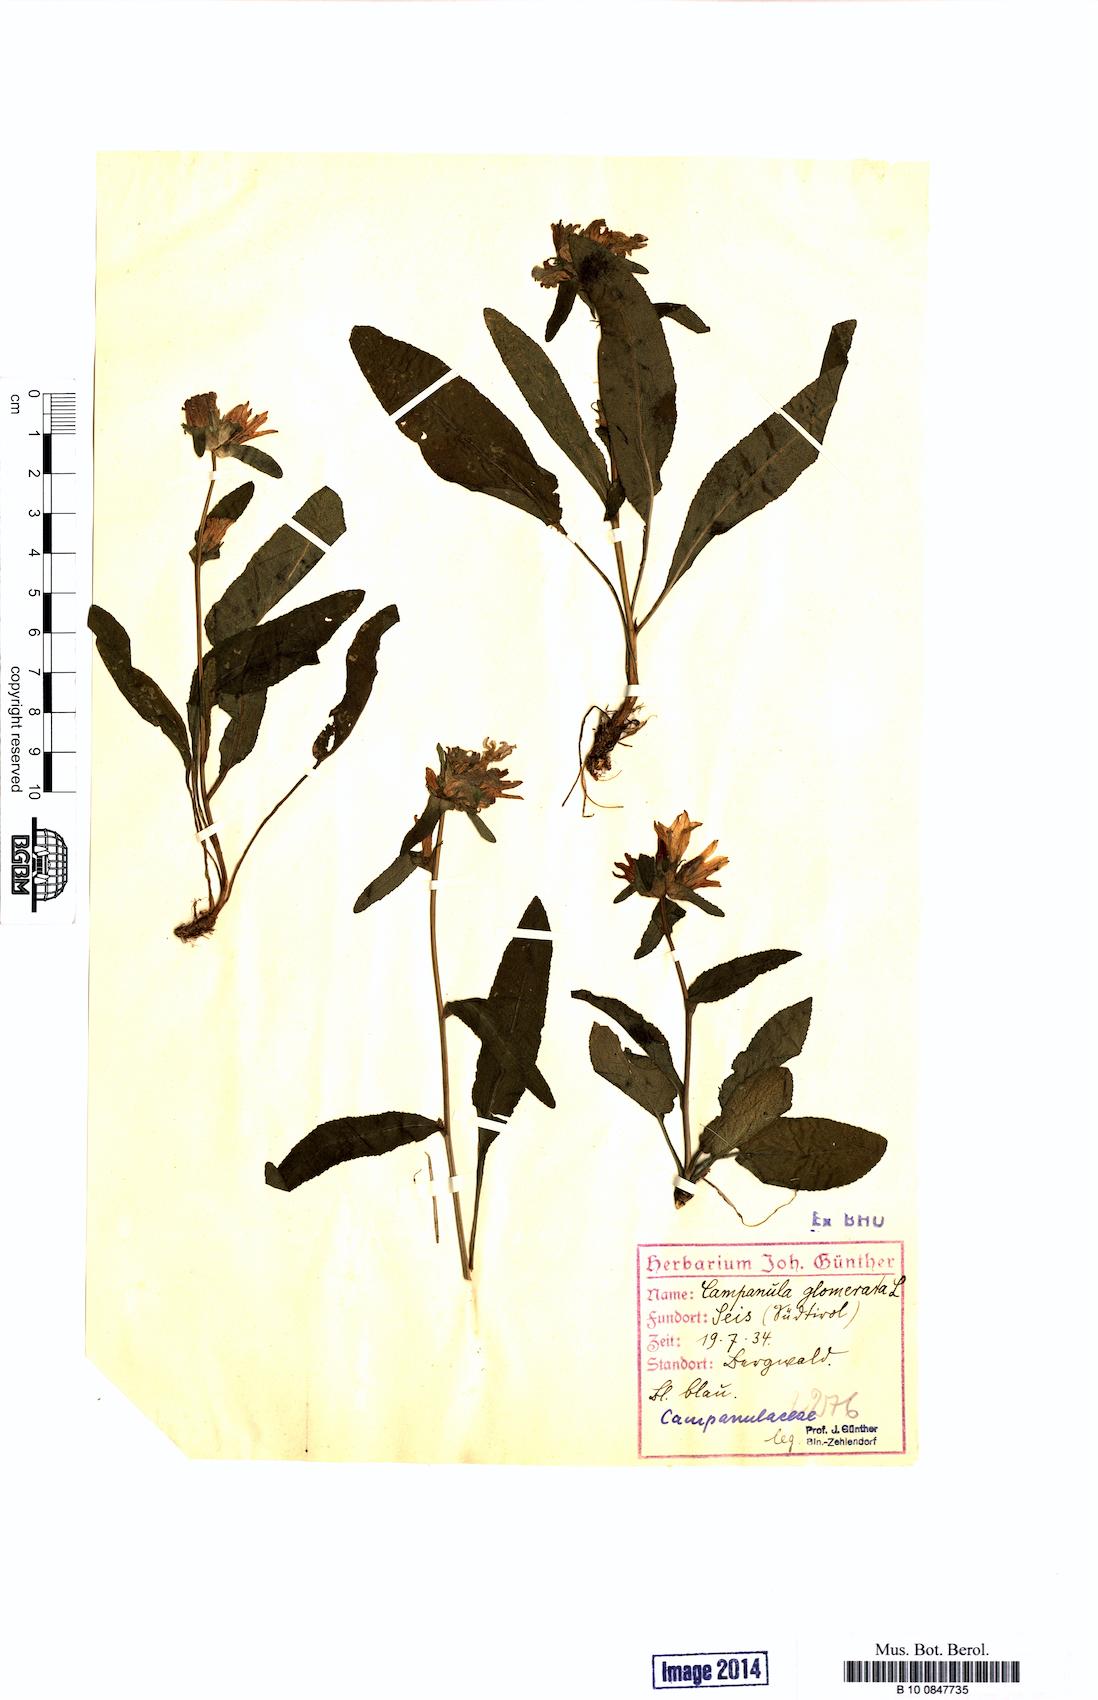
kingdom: Plantae
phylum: Tracheophyta
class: Magnoliopsida
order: Asterales
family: Campanulaceae
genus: Campanula
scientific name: Campanula glomerata
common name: Clustered bellflower
